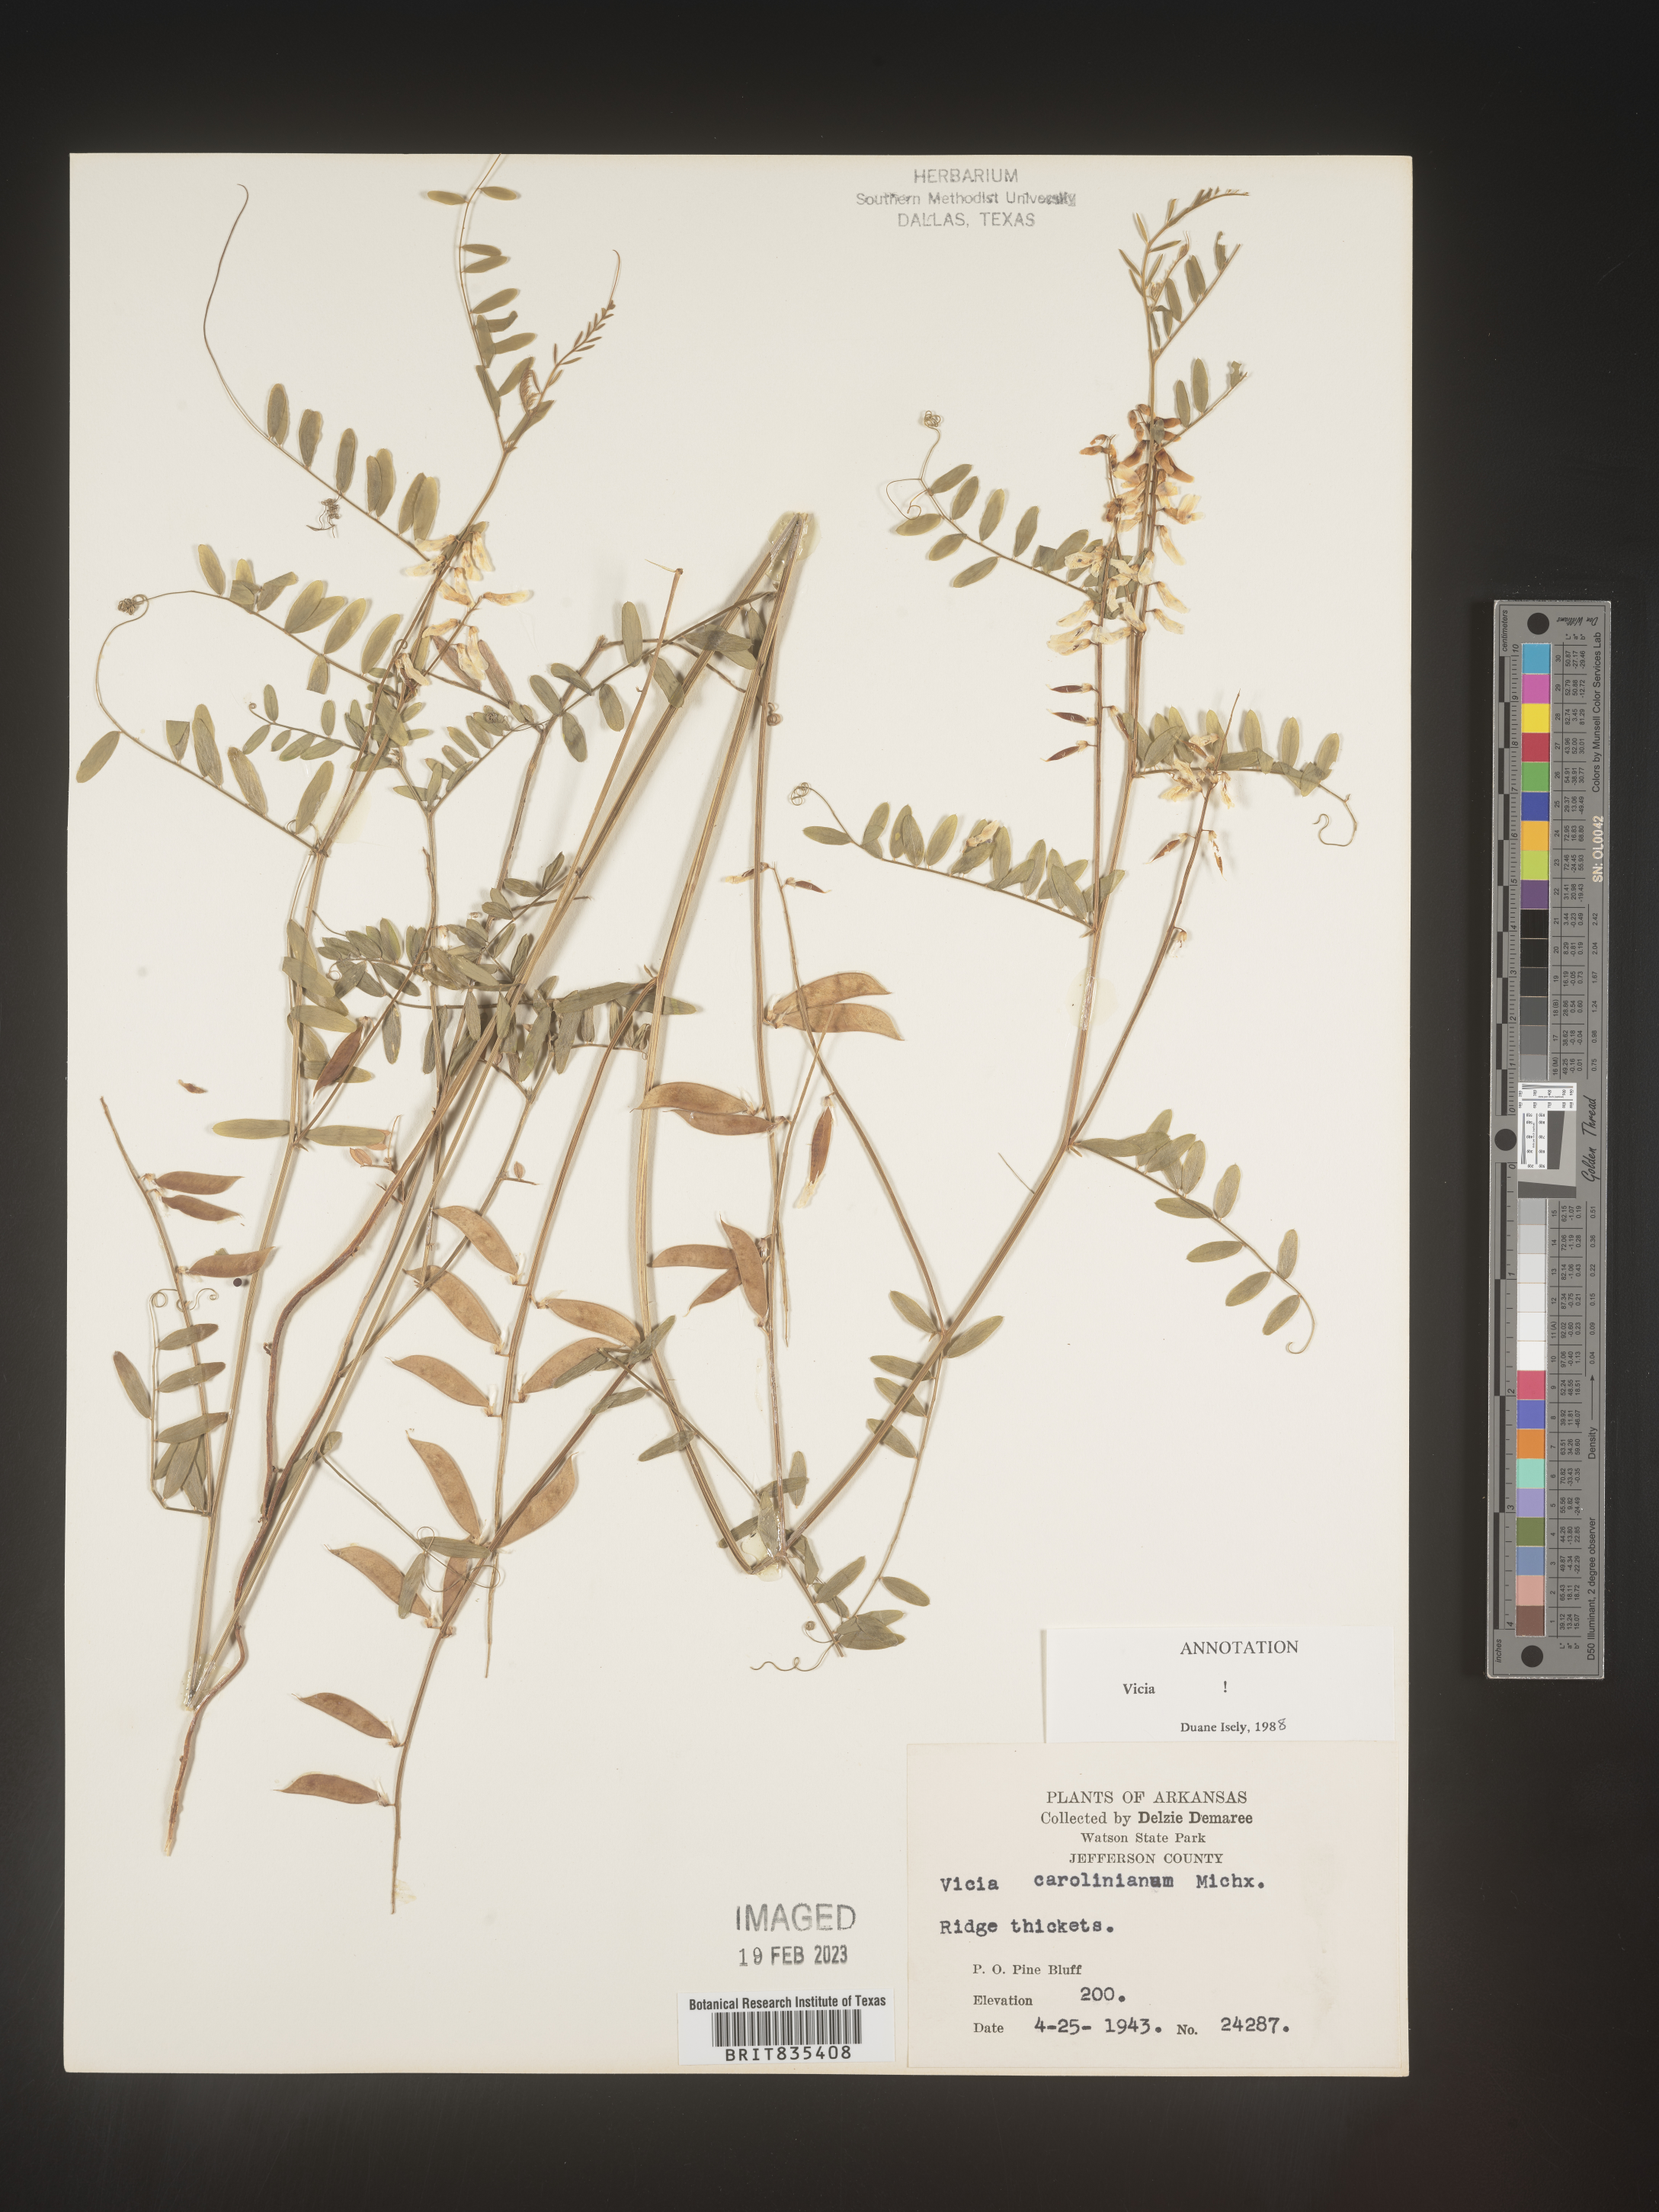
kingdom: Plantae
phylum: Tracheophyta
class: Magnoliopsida
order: Fabales
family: Fabaceae
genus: Vicia
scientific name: Vicia caroliniana
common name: Carolina vetch
